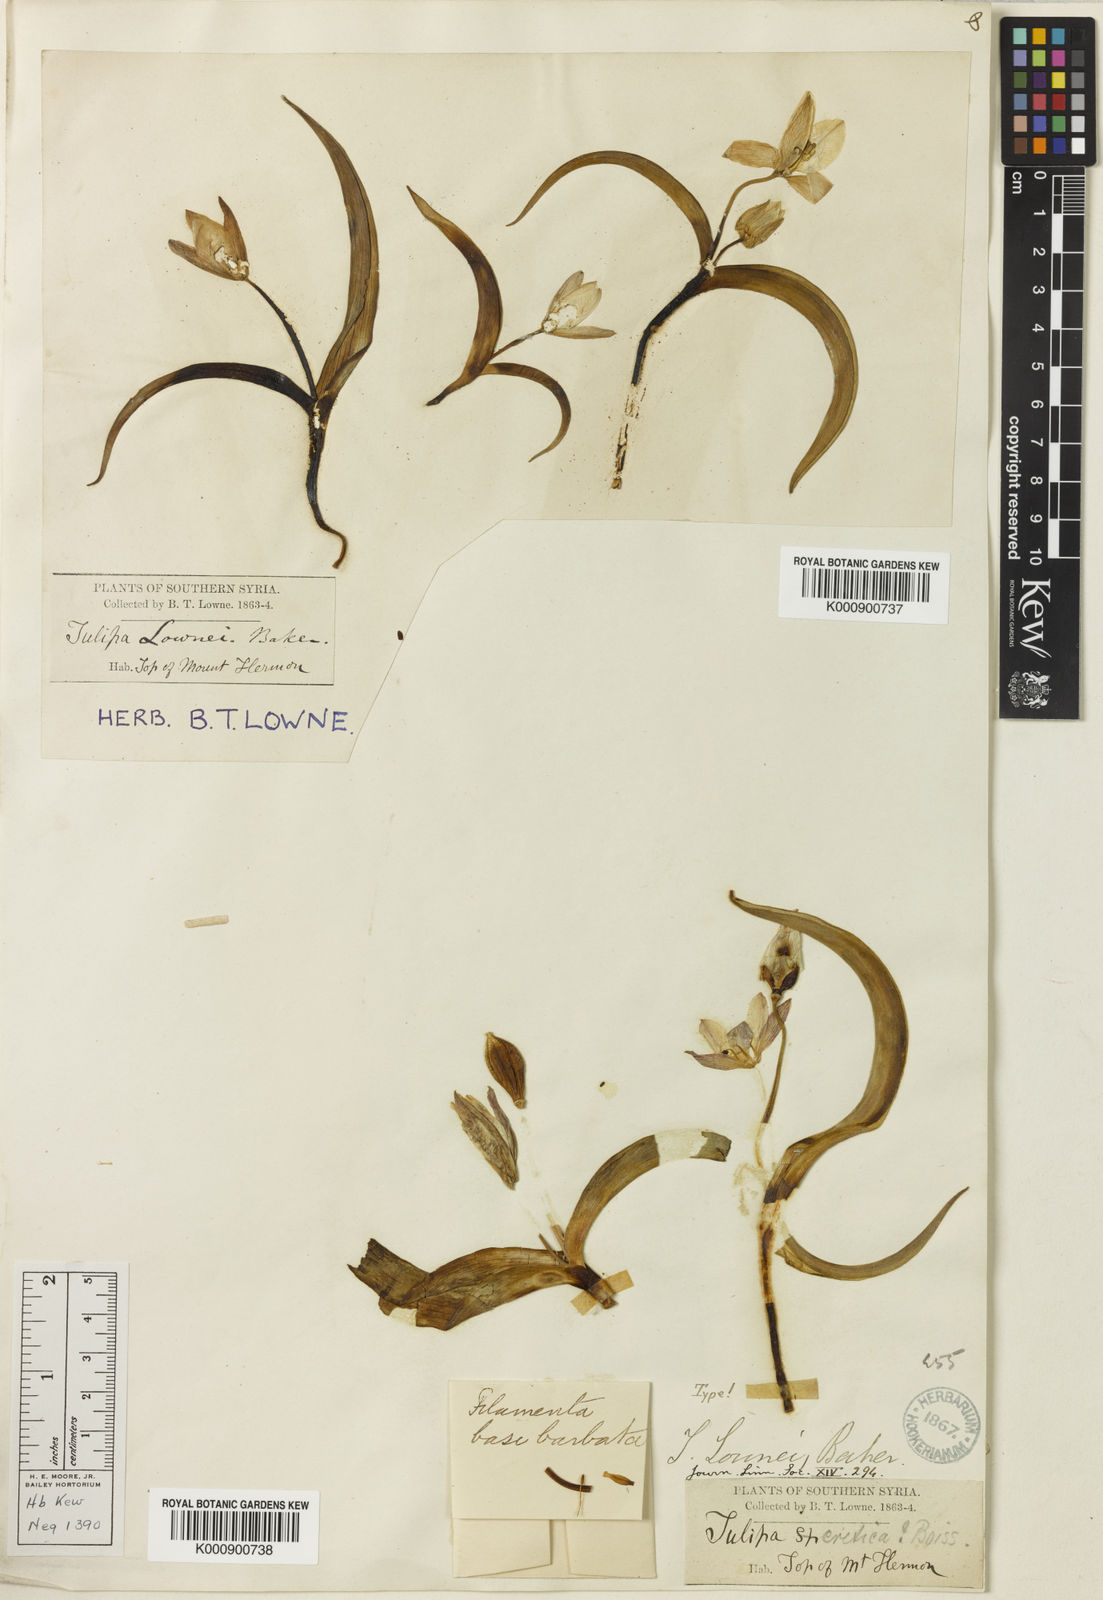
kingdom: Plantae
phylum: Tracheophyta
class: Liliopsida
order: Liliales
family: Liliaceae
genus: Tulipa
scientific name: Tulipa humilis
